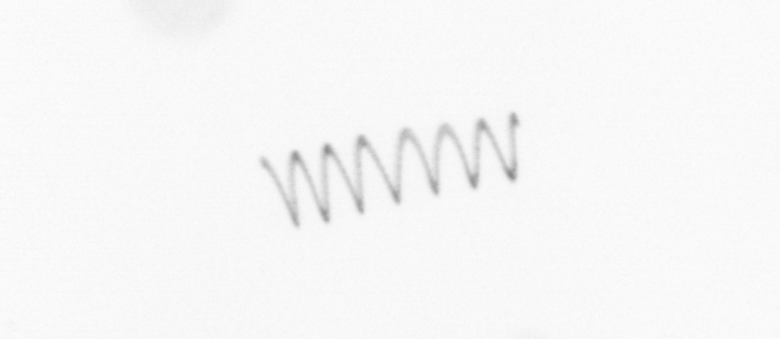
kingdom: Chromista
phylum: Ochrophyta
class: Bacillariophyceae
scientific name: Bacillariophyceae
